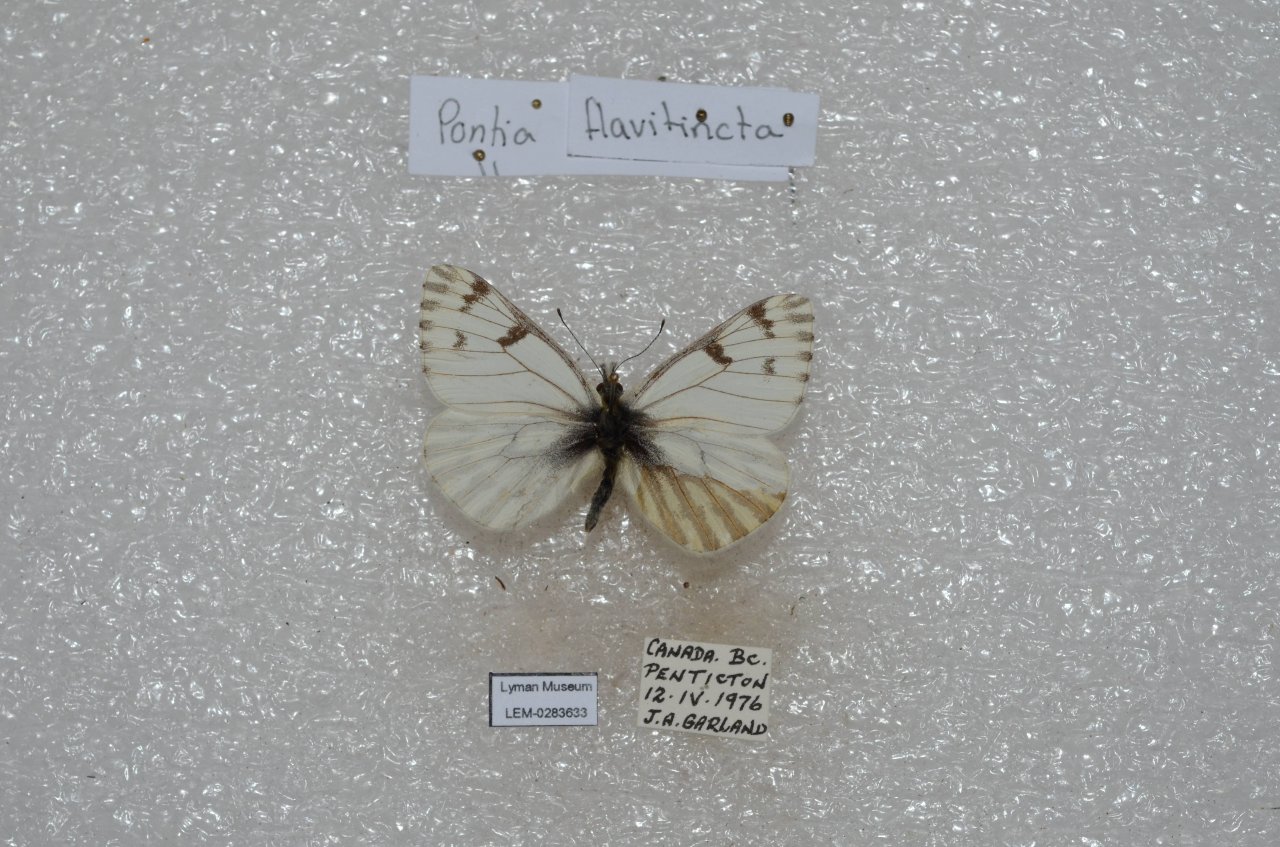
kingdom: Animalia
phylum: Arthropoda
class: Insecta
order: Lepidoptera
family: Pieridae
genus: Pontia
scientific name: Pontia sisymbrii
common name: Spring White
